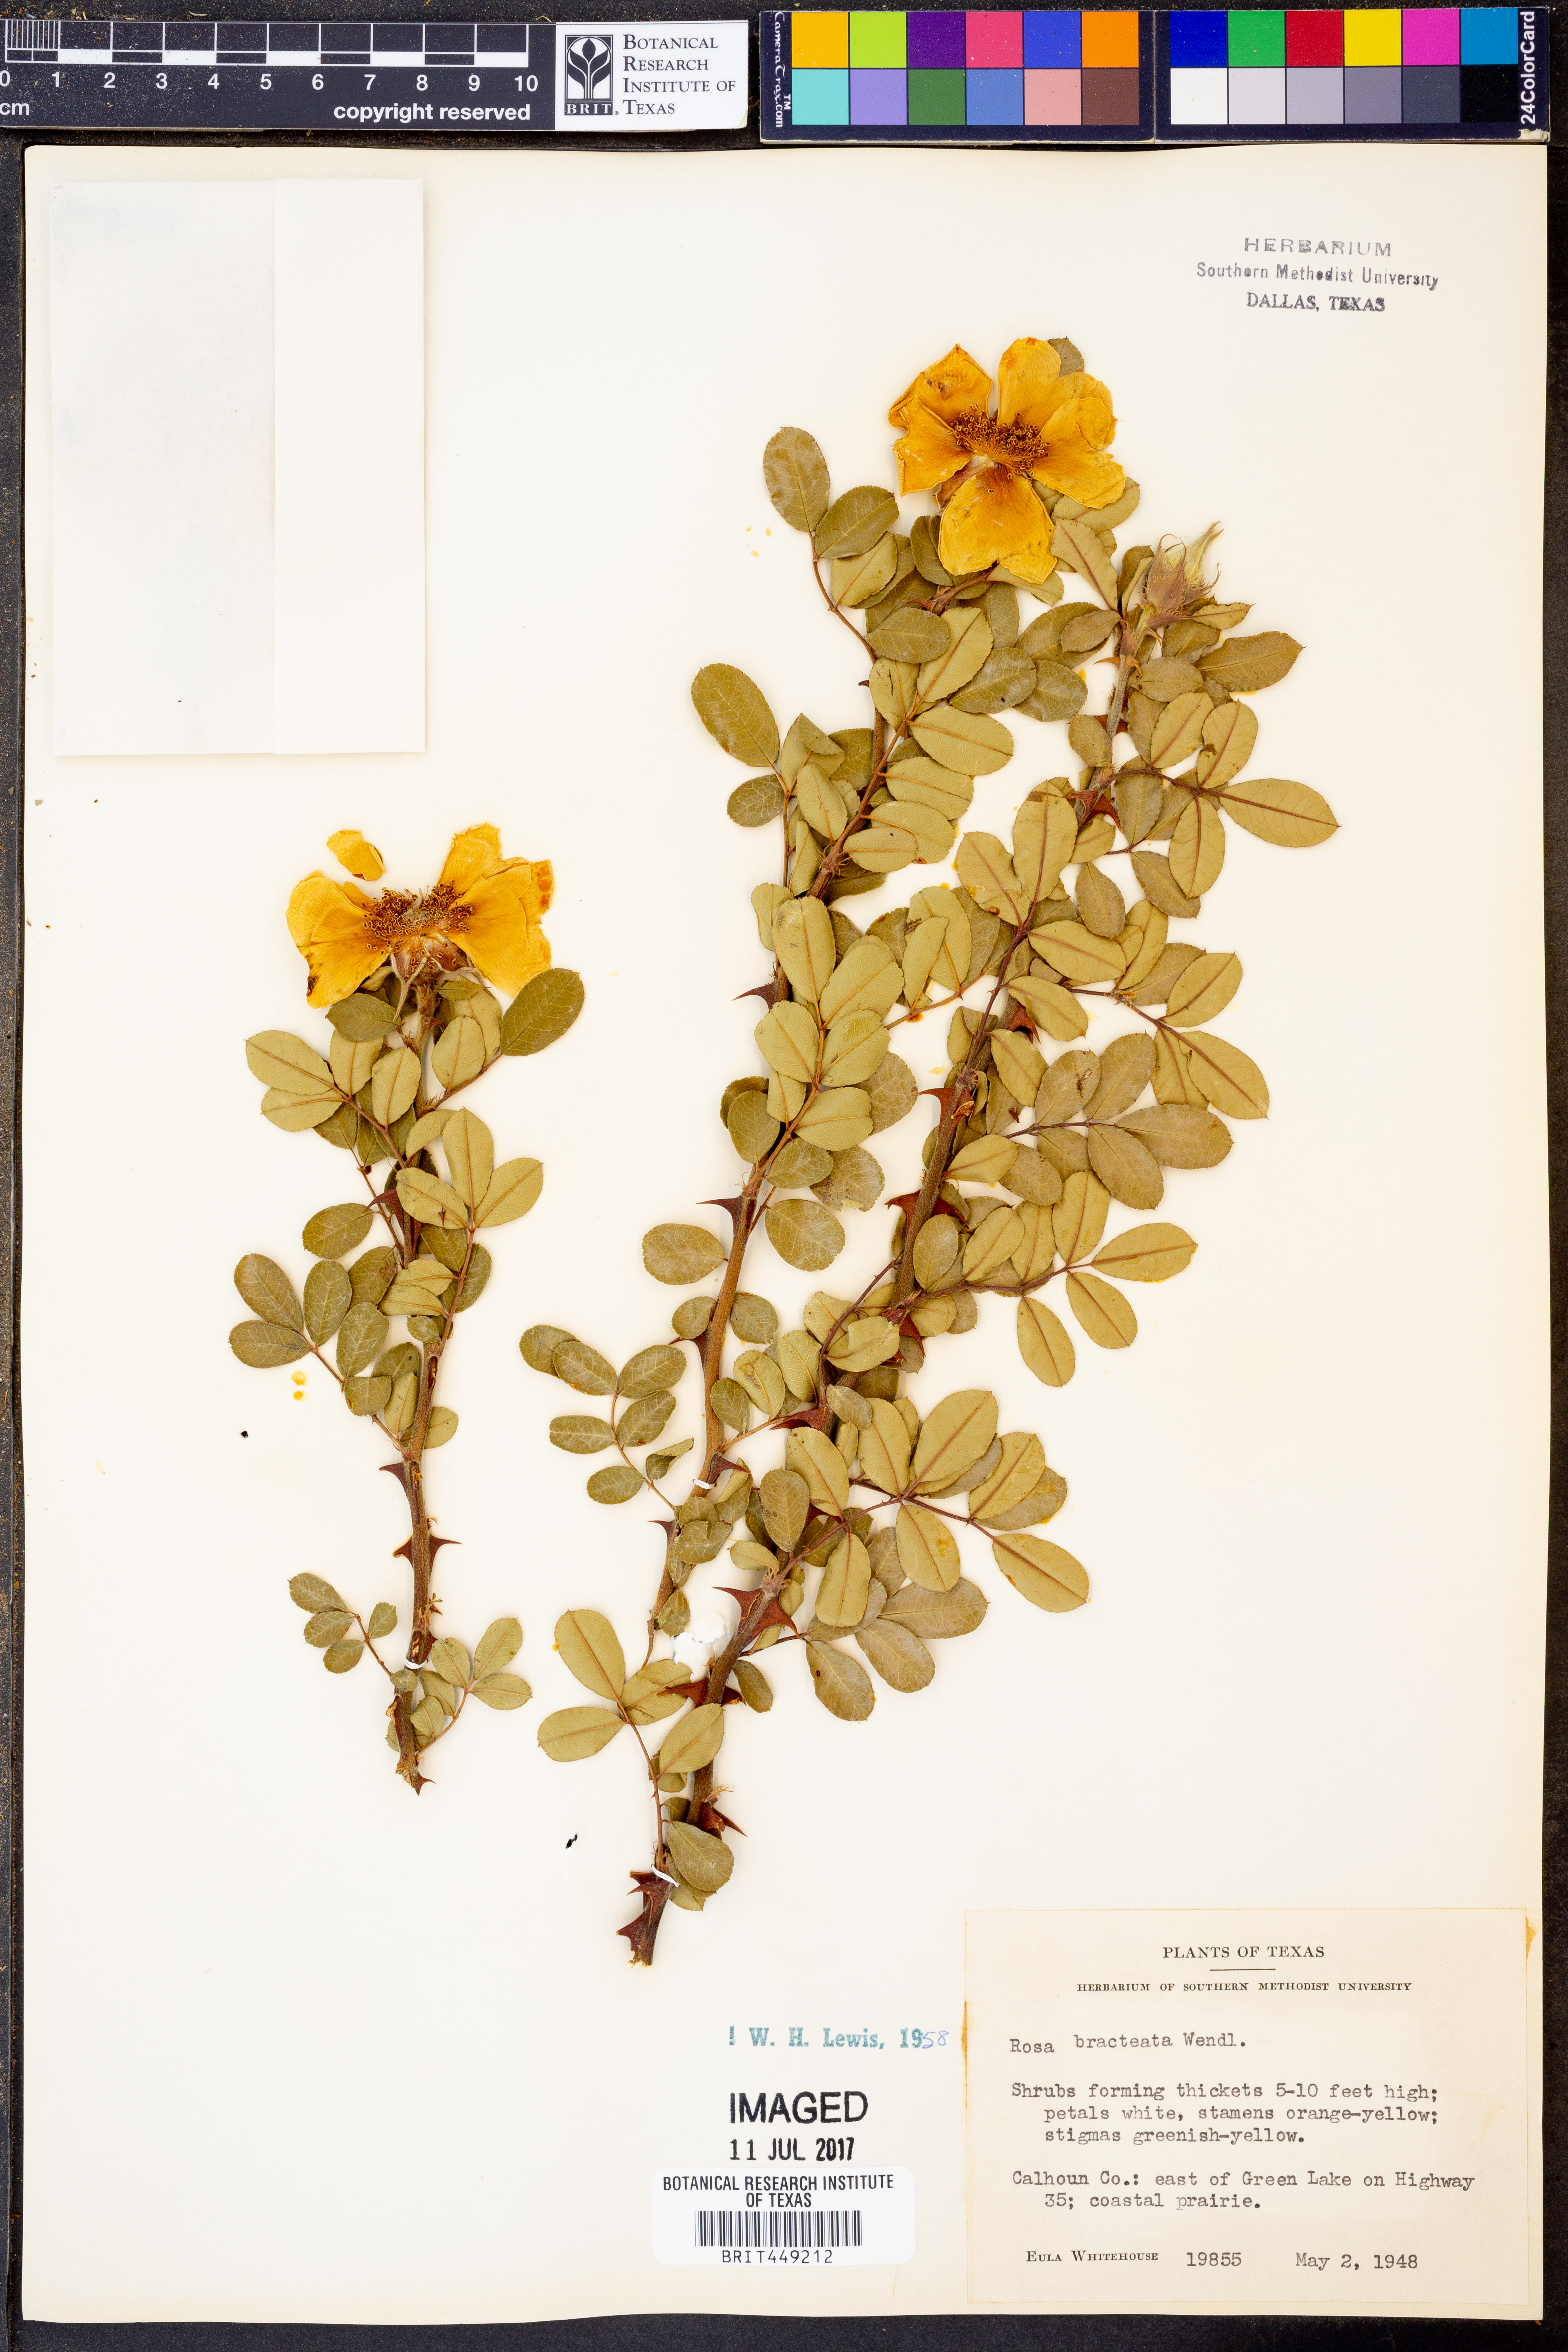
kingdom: Plantae
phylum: Tracheophyta
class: Magnoliopsida
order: Rosales
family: Rosaceae
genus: Rosa
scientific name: Rosa bracteata
